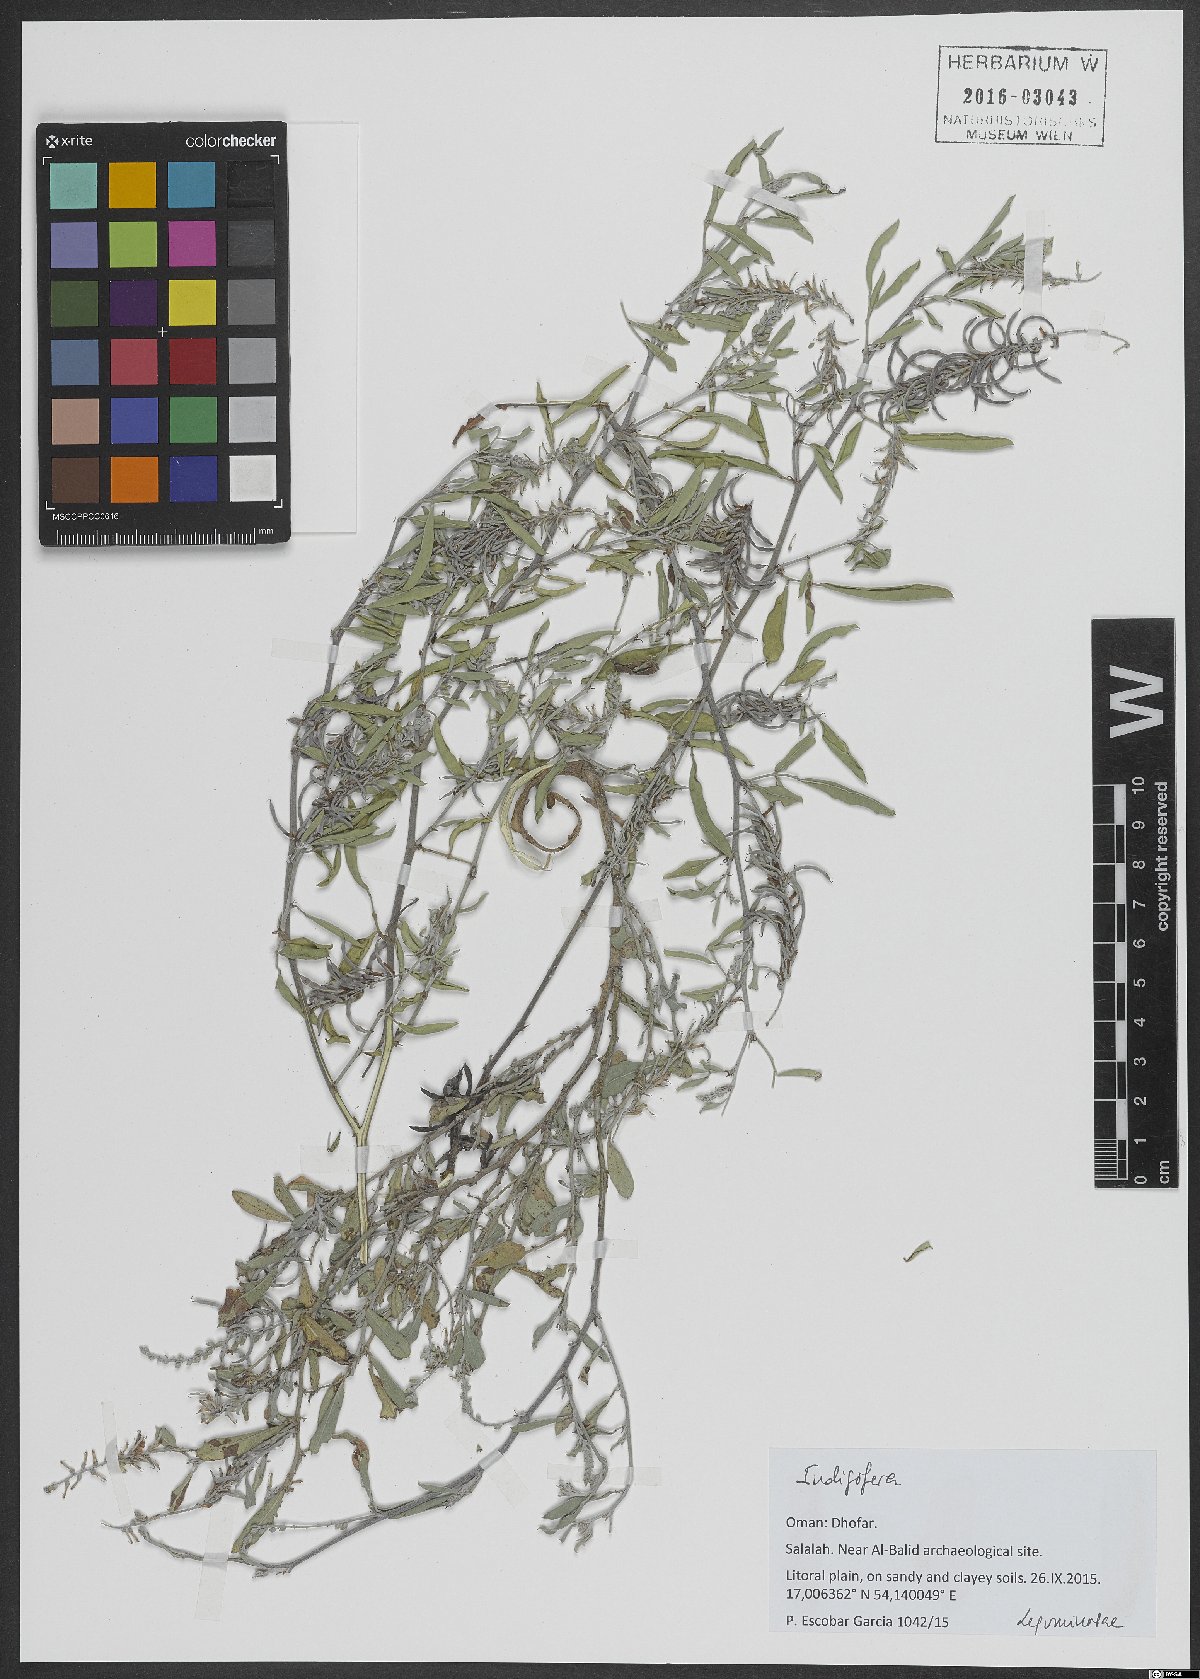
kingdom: Plantae
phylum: Tracheophyta
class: Magnoliopsida
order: Fabales
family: Fabaceae
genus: Indigofera
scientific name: Indigofera
